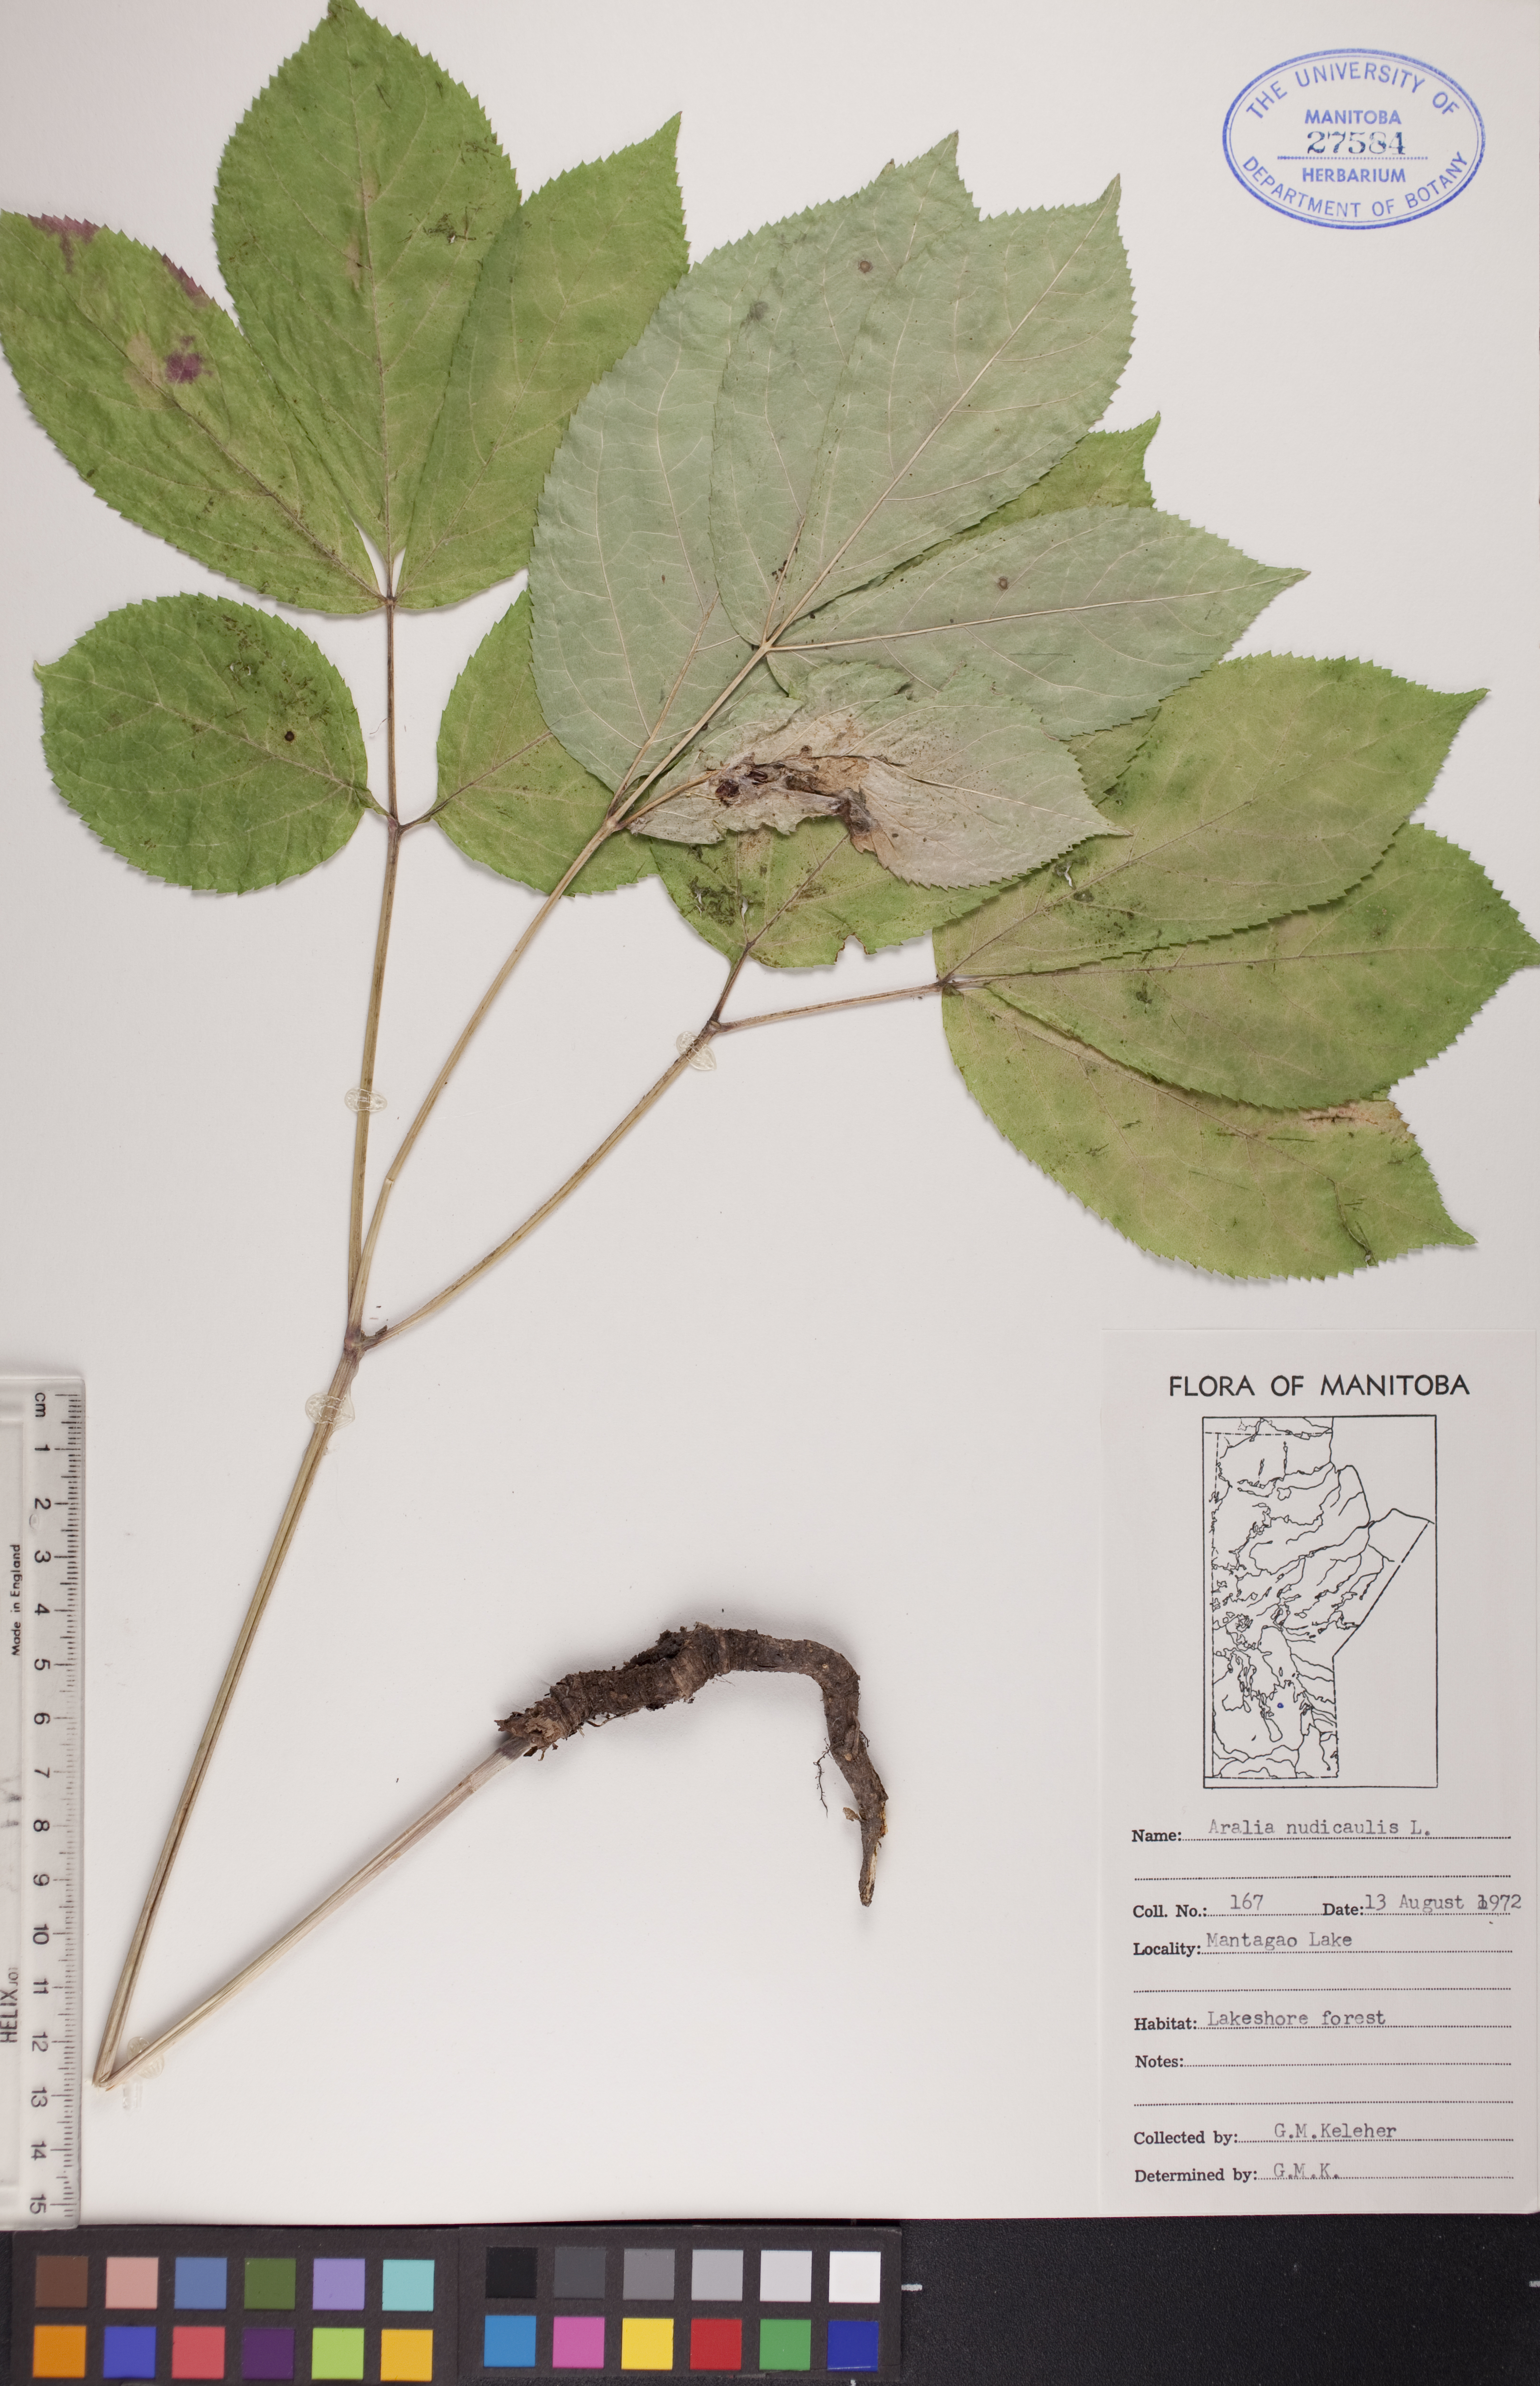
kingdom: Plantae
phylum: Tracheophyta
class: Magnoliopsida
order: Apiales
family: Araliaceae
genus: Aralia
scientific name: Aralia nudicaulis
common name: Wild sarsaparilla
